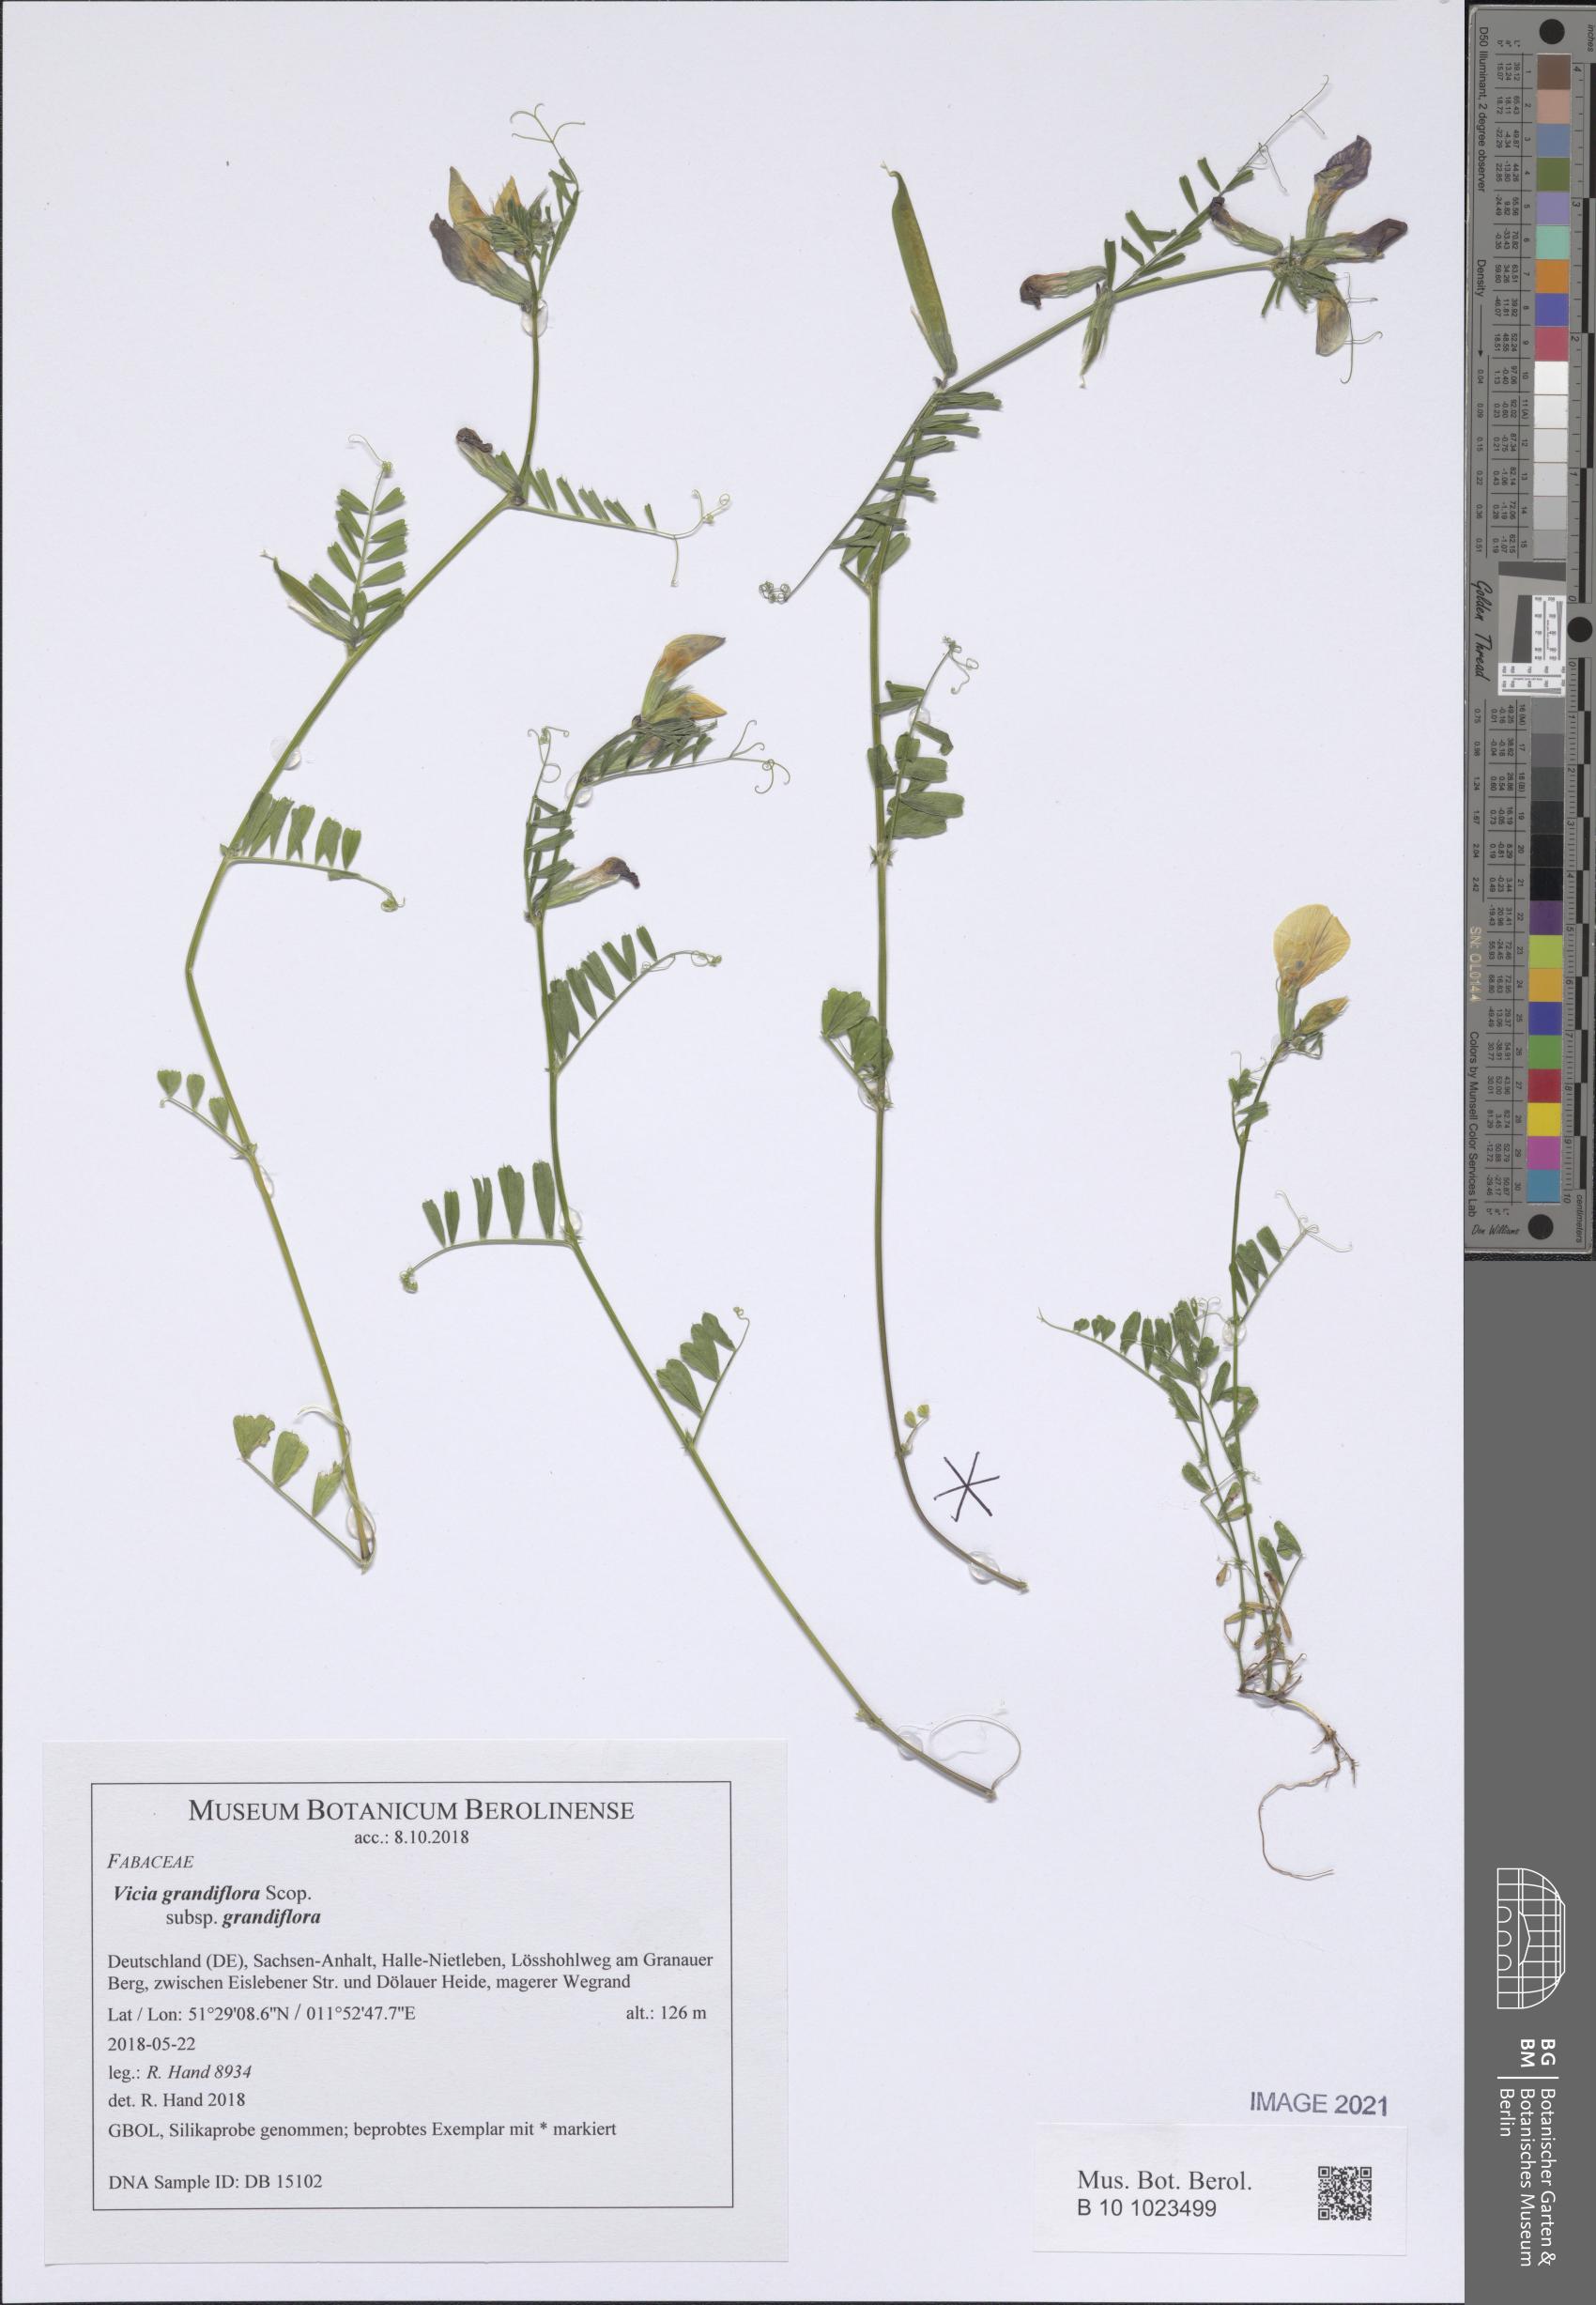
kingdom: Plantae
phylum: Tracheophyta
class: Magnoliopsida
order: Fabales
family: Fabaceae
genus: Vicia
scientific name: Vicia grandiflora
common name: Large yellow vetch
